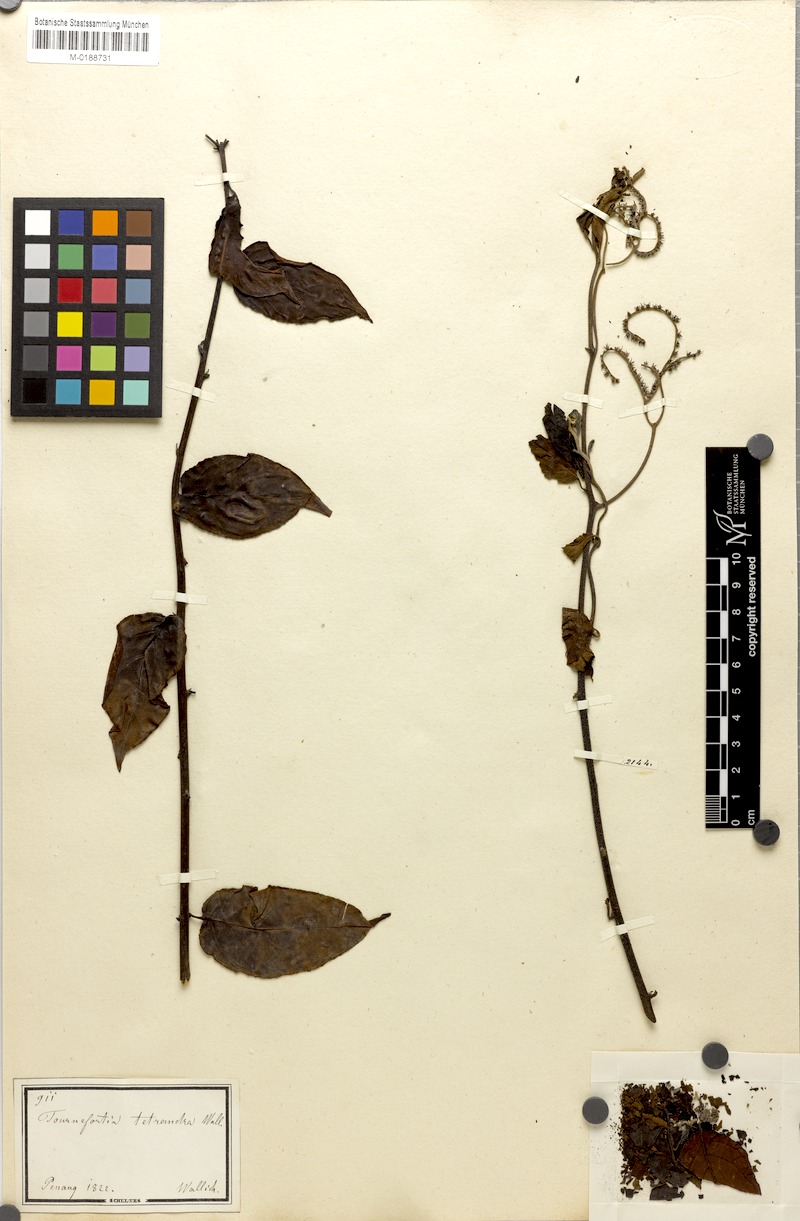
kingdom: Plantae
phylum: Tracheophyta
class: Magnoliopsida
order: Boraginales
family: Heliotropiaceae
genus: Heliotropium
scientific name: Heliotropium biblianum
